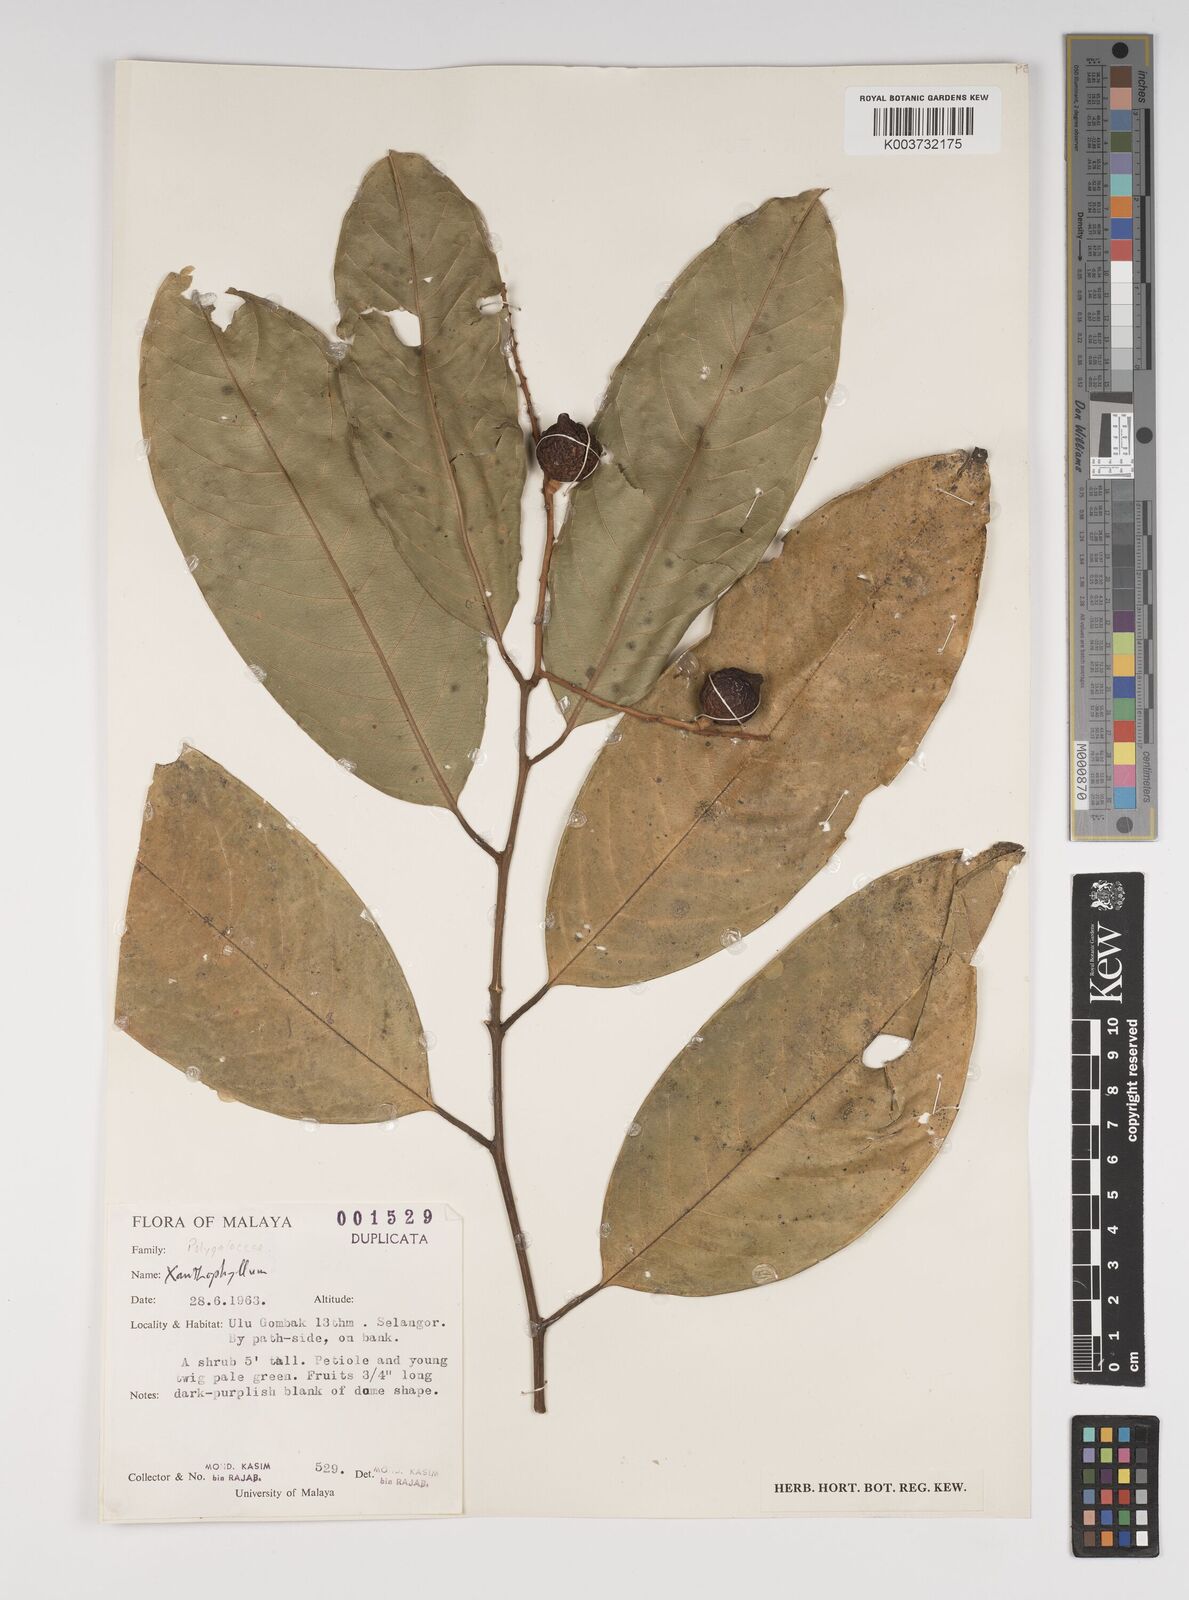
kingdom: Plantae
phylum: Tracheophyta
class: Magnoliopsida
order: Fabales
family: Polygalaceae
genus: Xanthophyllum
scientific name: Xanthophyllum
